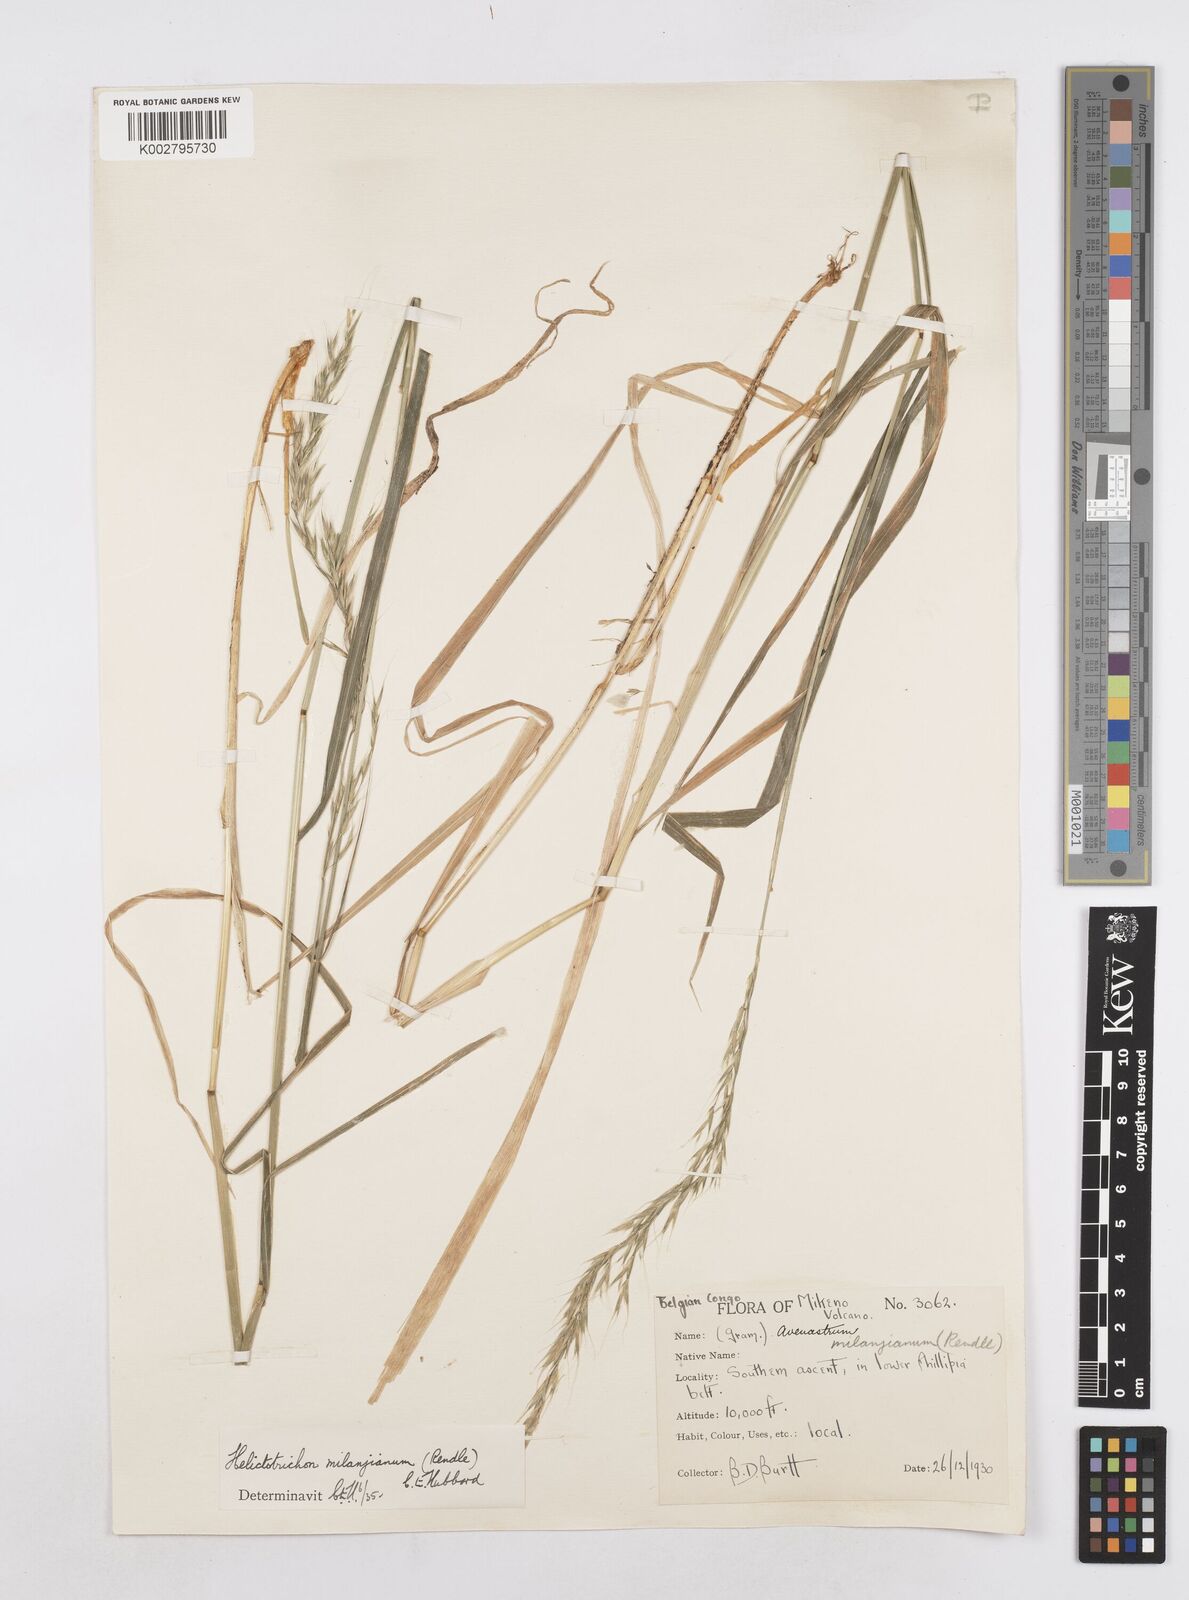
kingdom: Plantae
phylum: Tracheophyta
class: Liliopsida
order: Poales
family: Poaceae
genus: Trisetopsis
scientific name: Trisetopsis milanjiana
